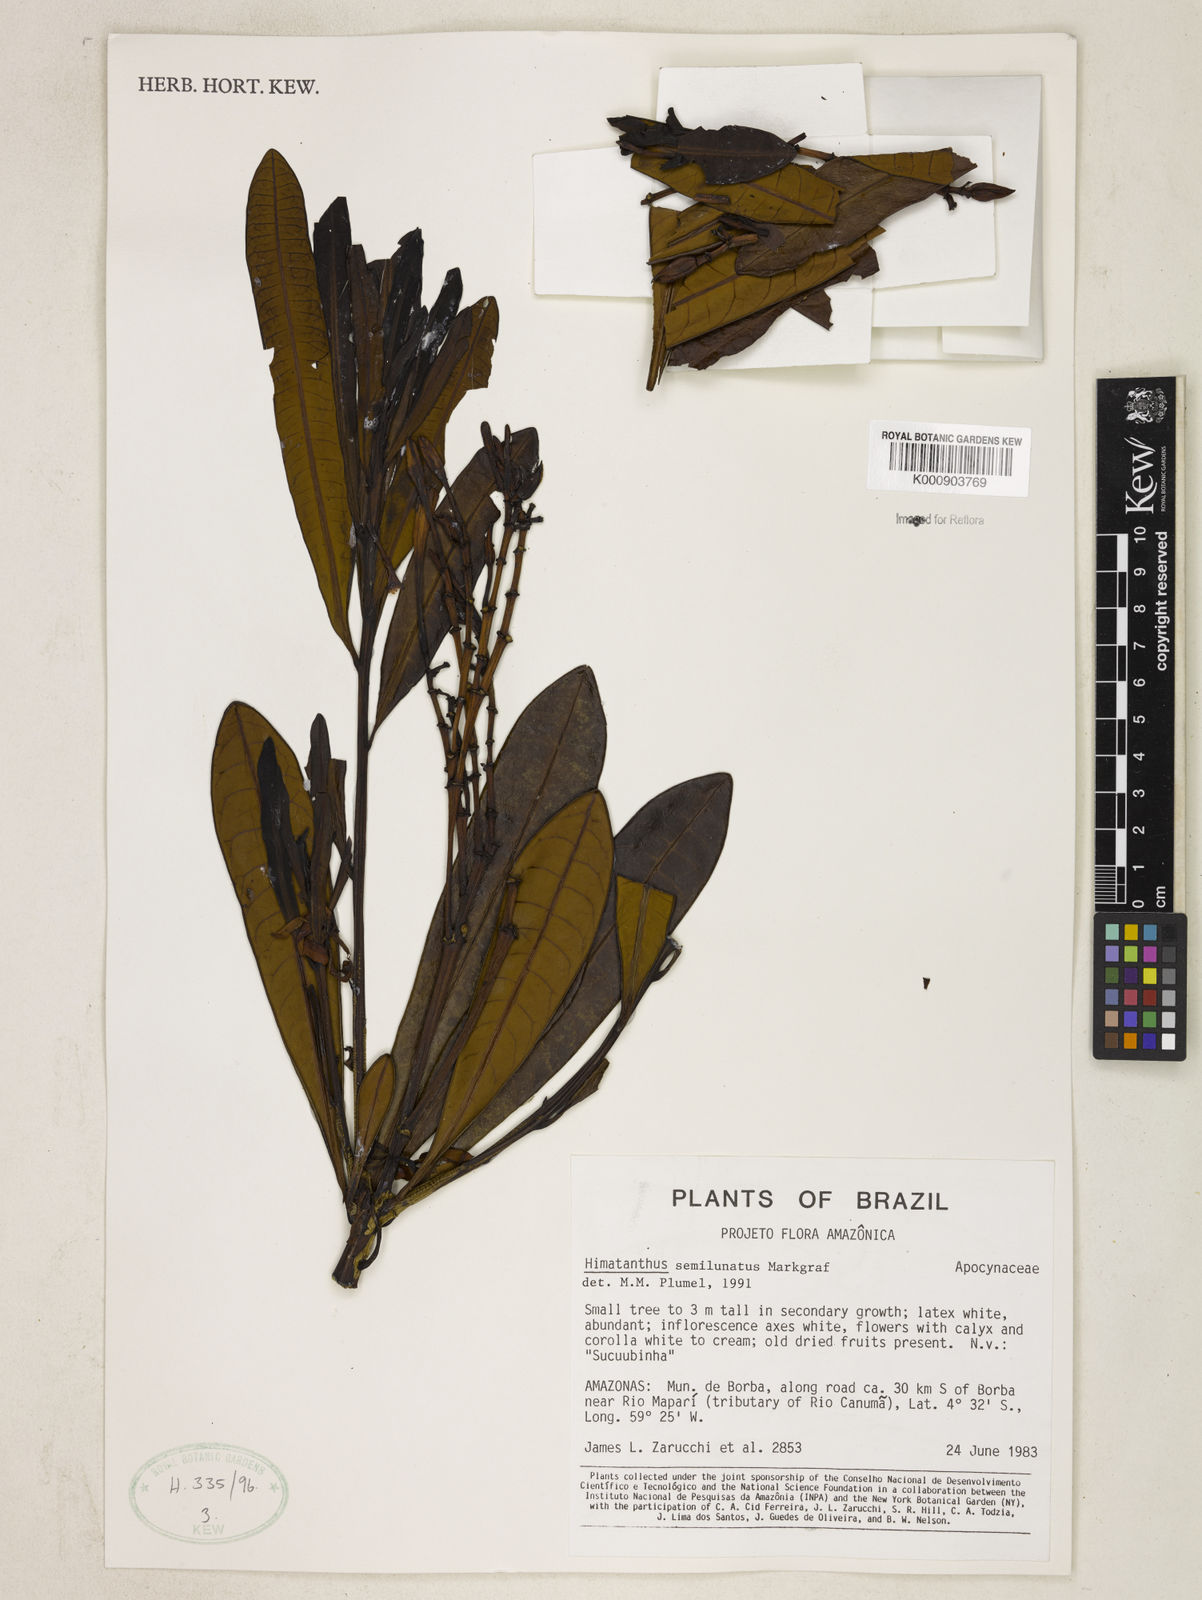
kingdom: Plantae
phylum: Tracheophyta
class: Magnoliopsida
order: Gentianales
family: Apocynaceae
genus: Himatanthus
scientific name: Himatanthus semilunatus
